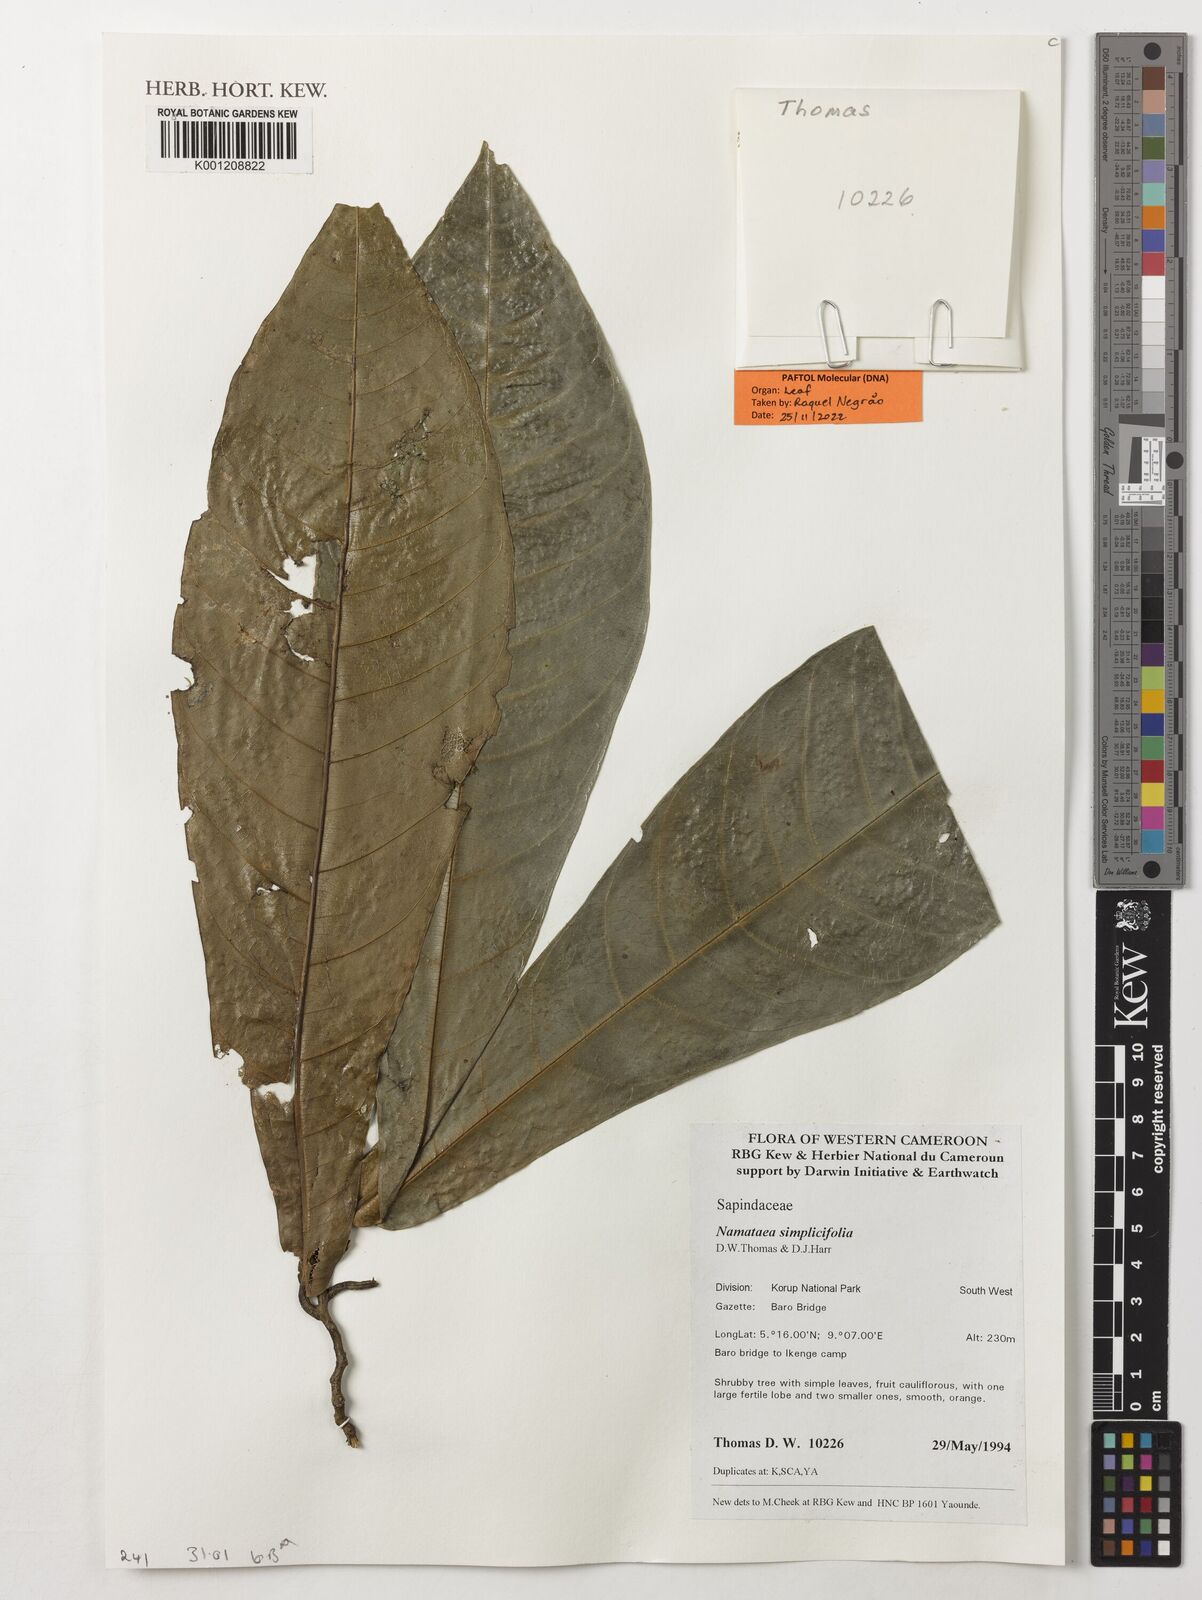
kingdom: Plantae
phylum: Tracheophyta
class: Magnoliopsida
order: Sapindales
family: Sapindaceae
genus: Namataea
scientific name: Namataea simplicifolia
